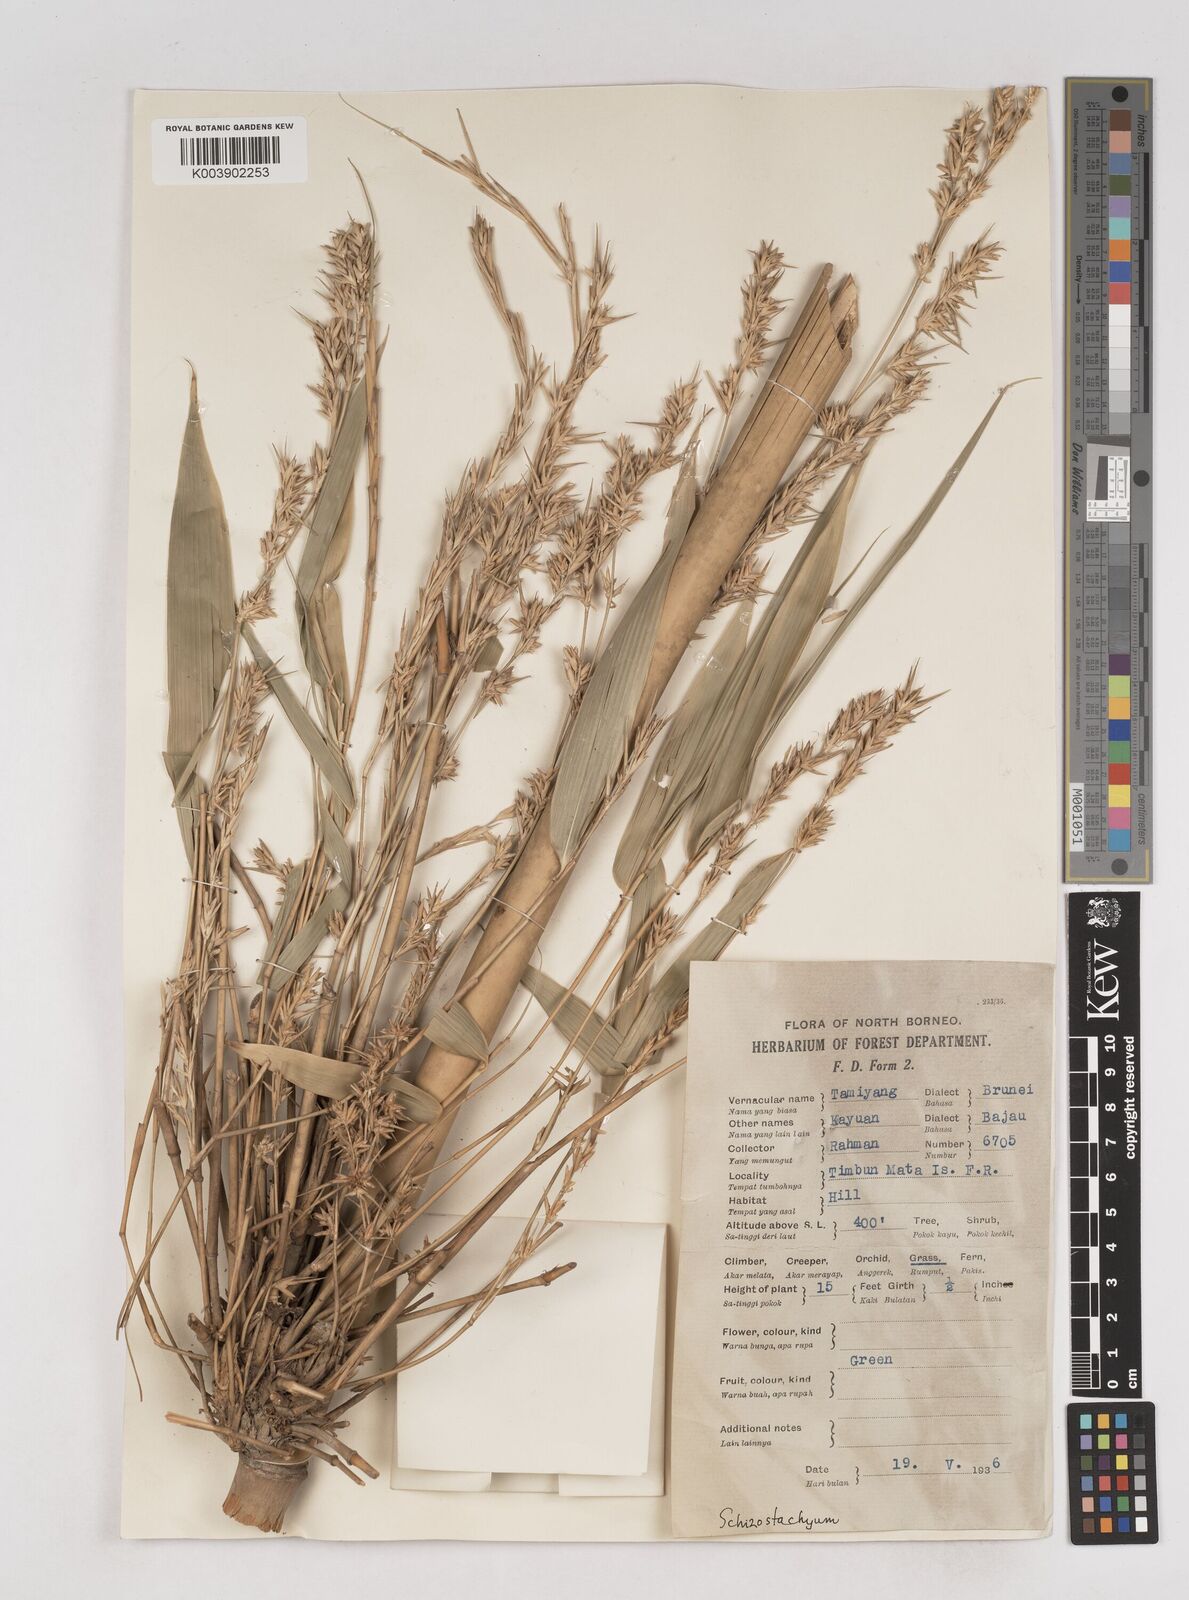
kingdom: Plantae
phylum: Tracheophyta
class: Liliopsida
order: Poales
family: Poaceae
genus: Schizostachyum
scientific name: Schizostachyum lima
